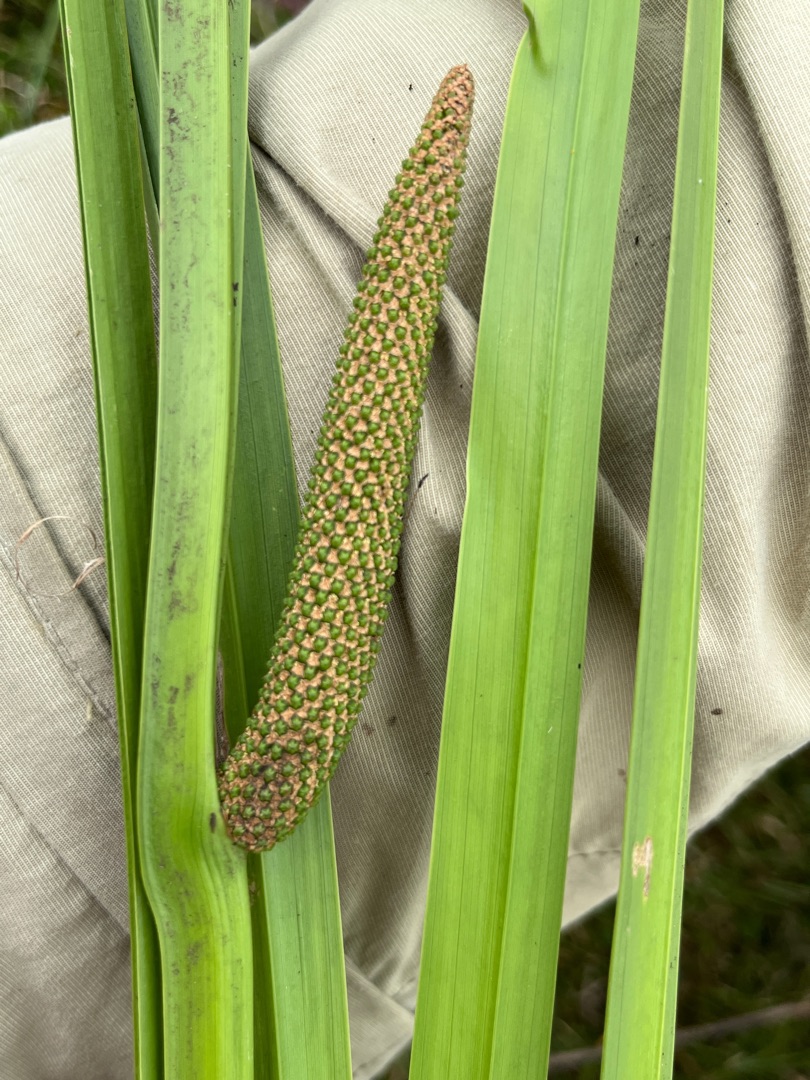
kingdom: Plantae
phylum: Tracheophyta
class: Liliopsida
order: Acorales
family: Acoraceae
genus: Acorus
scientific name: Acorus calamus
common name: Kalmus
